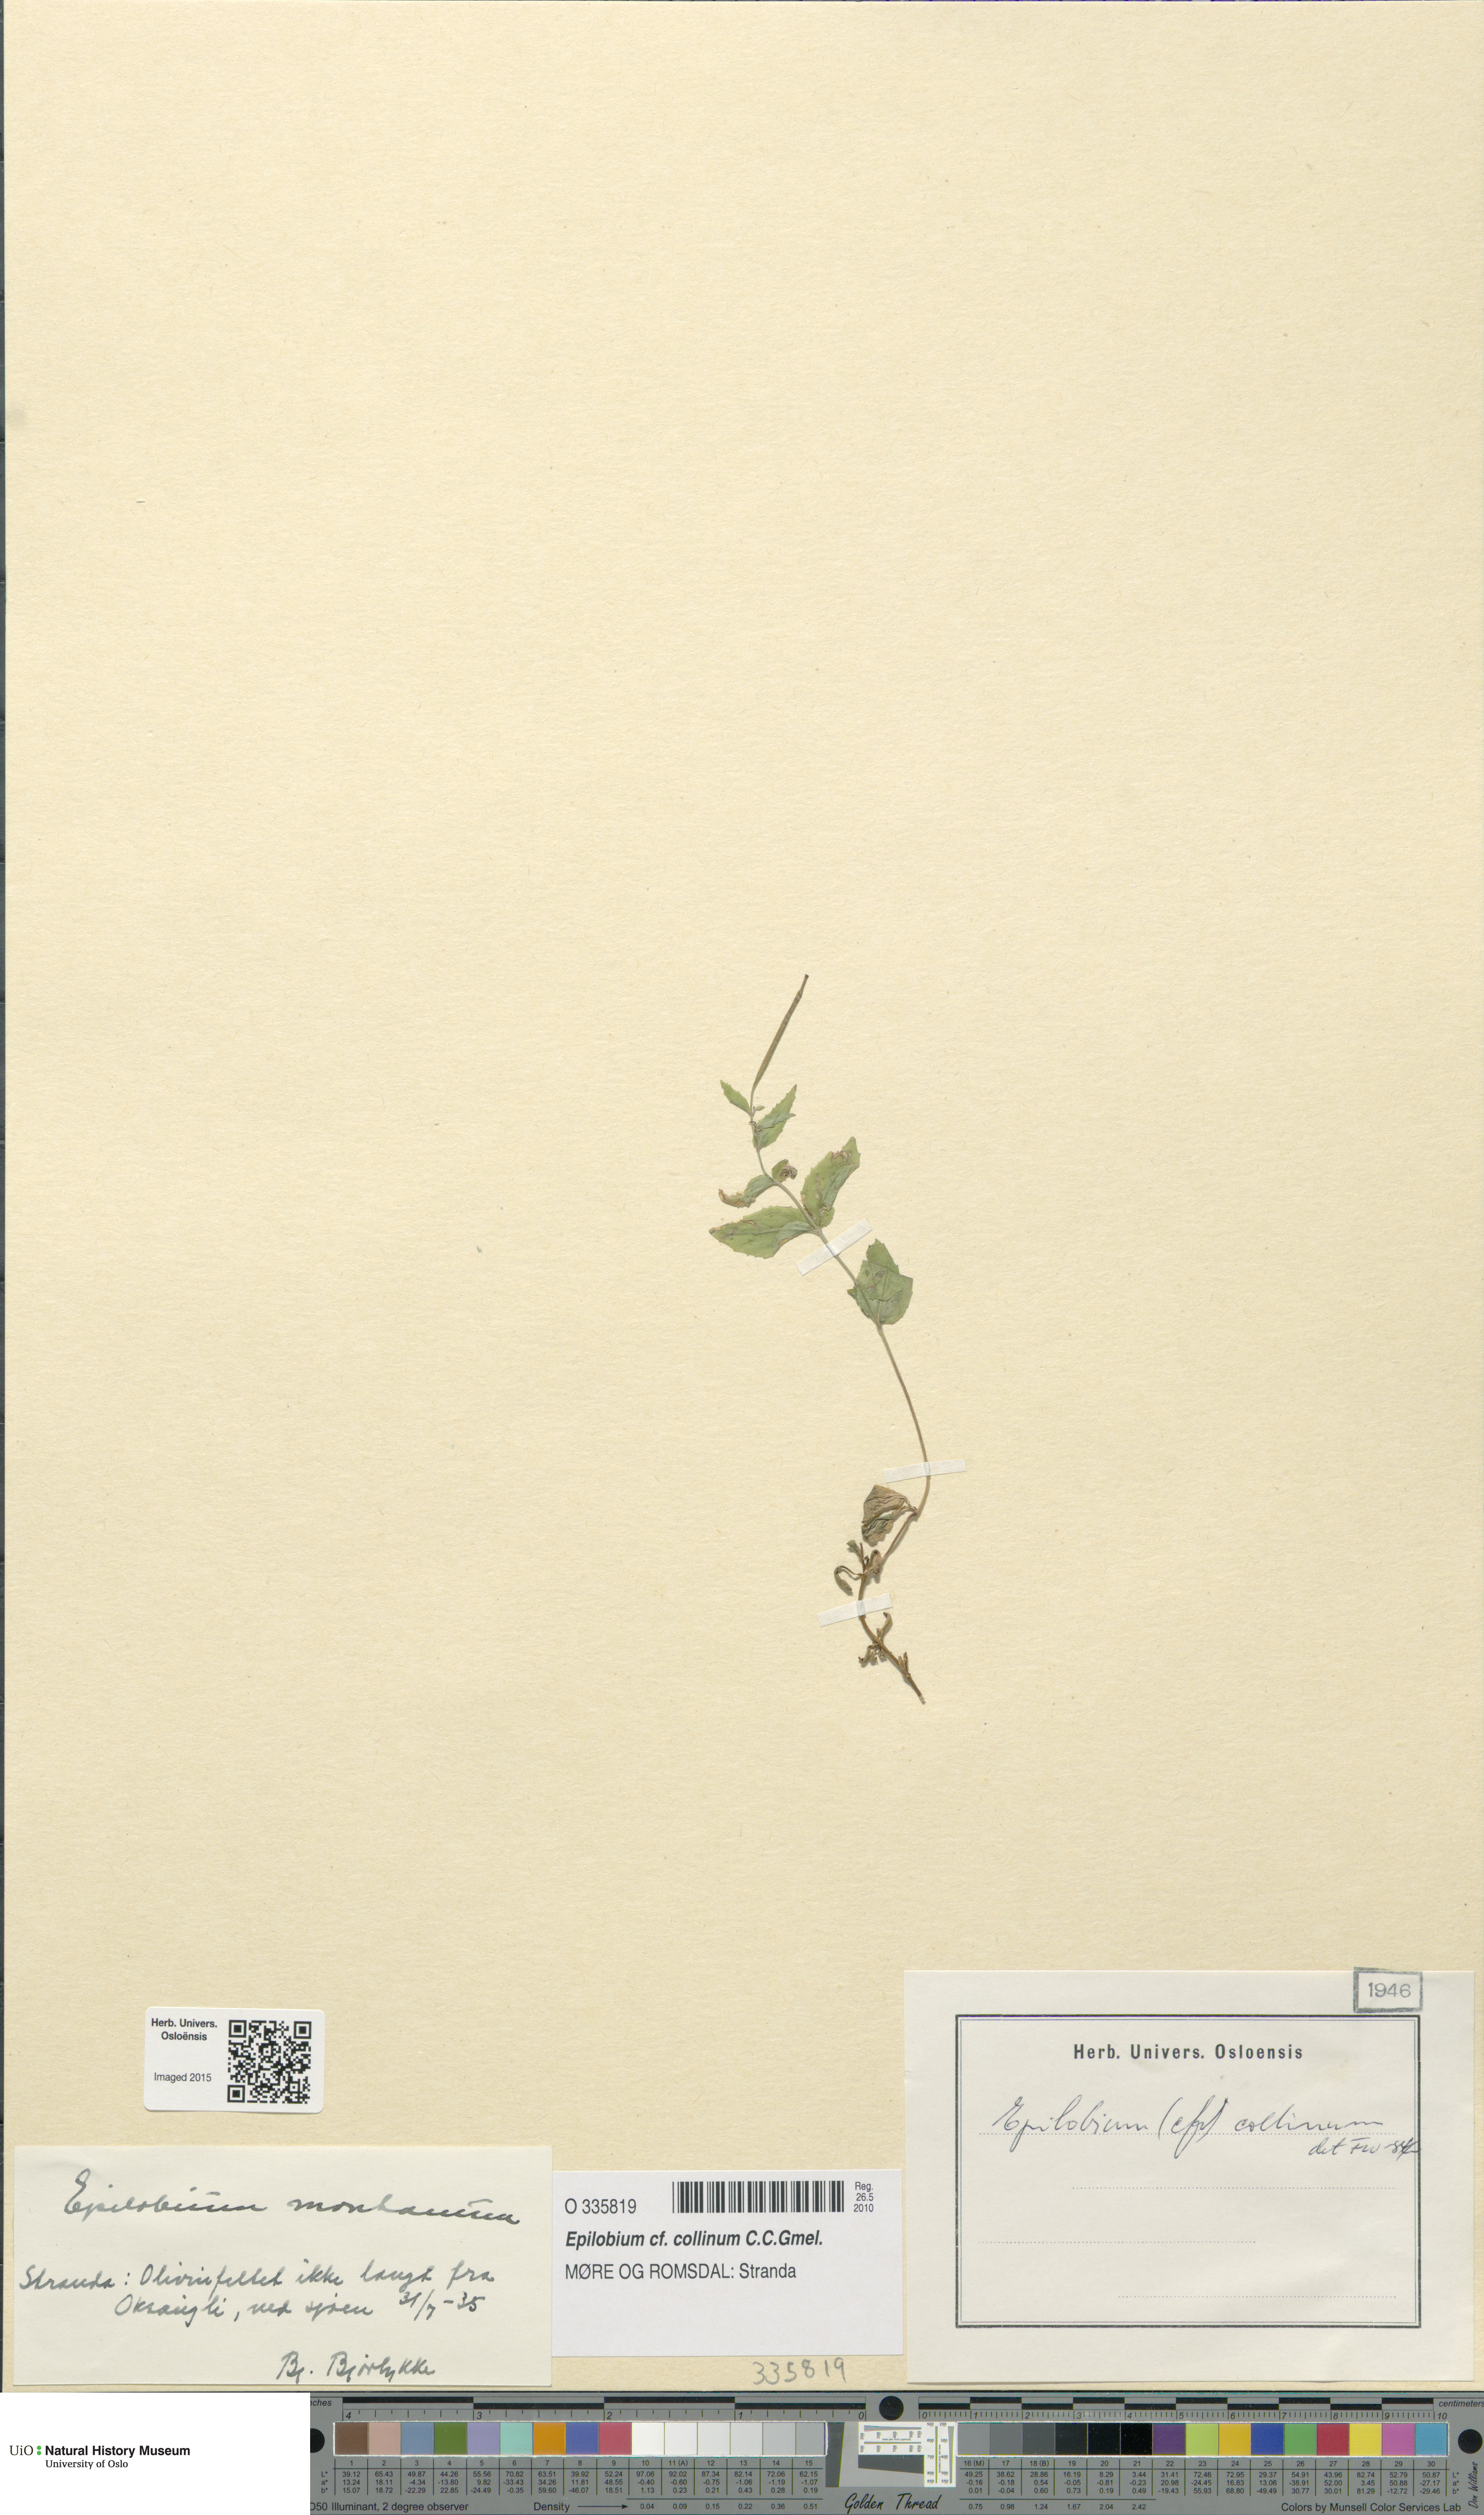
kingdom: Plantae
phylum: Tracheophyta
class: Magnoliopsida
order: Myrtales
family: Onagraceae
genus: Epilobium
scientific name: Epilobium collinum
